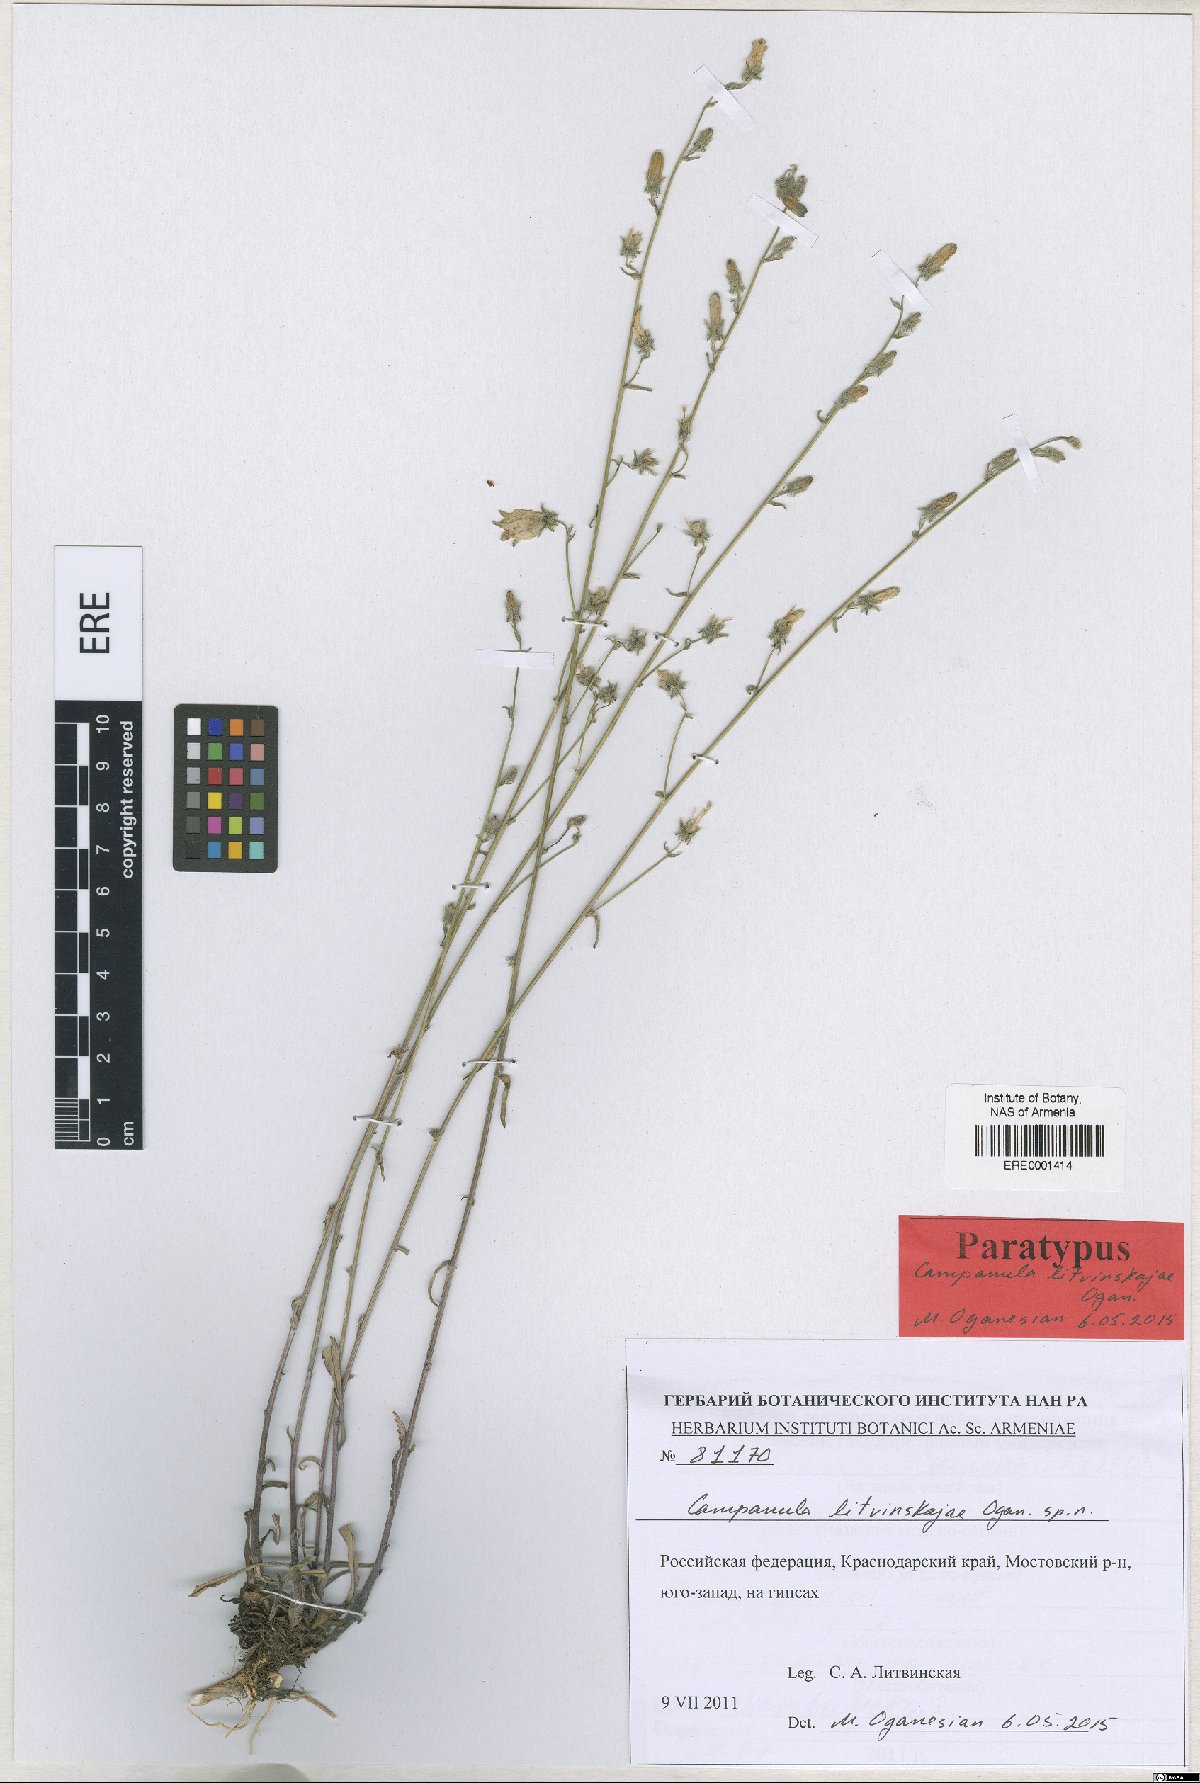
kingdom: Plantae
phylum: Tracheophyta
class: Magnoliopsida
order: Asterales
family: Campanulaceae
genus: Campanula
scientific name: Campanula litvinskajae
